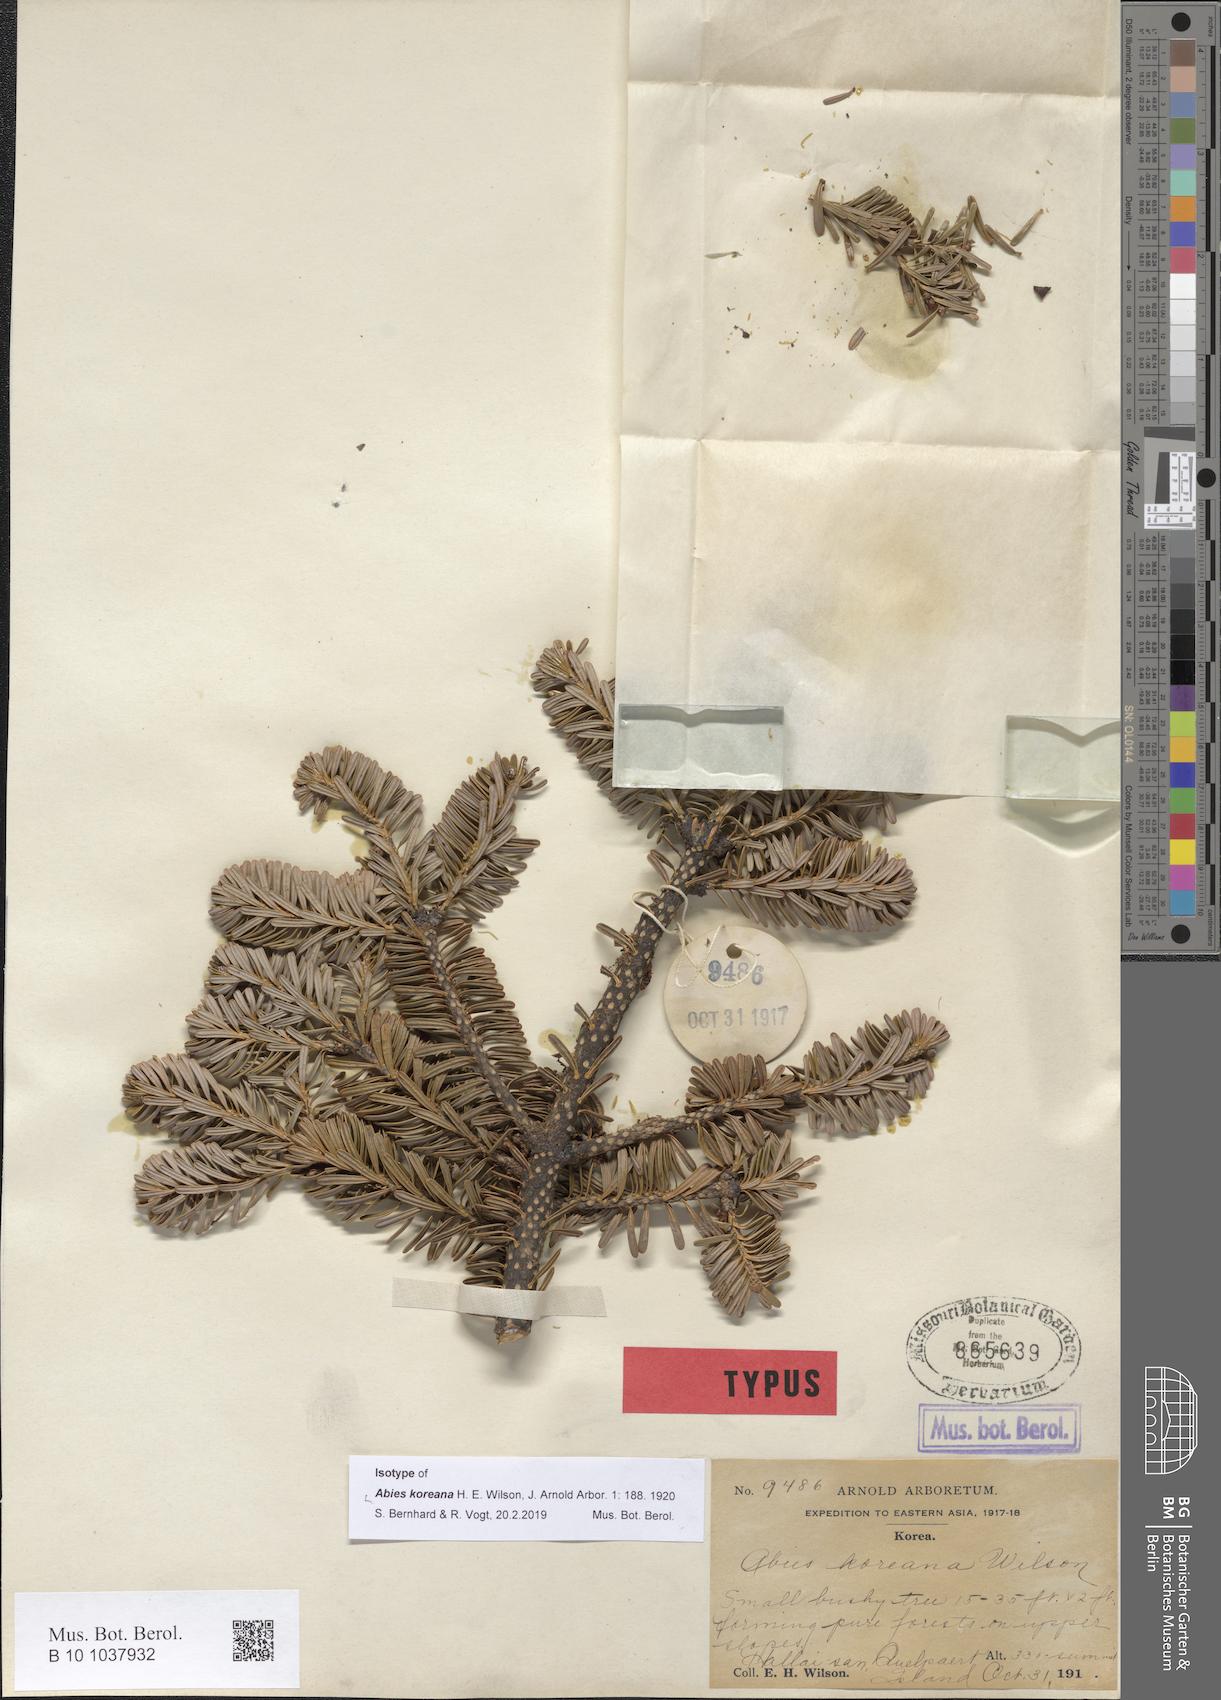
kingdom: Plantae
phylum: Tracheophyta
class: Pinopsida
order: Pinales
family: Pinaceae
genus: Abies
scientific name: Abies koreana
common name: Korean fir
